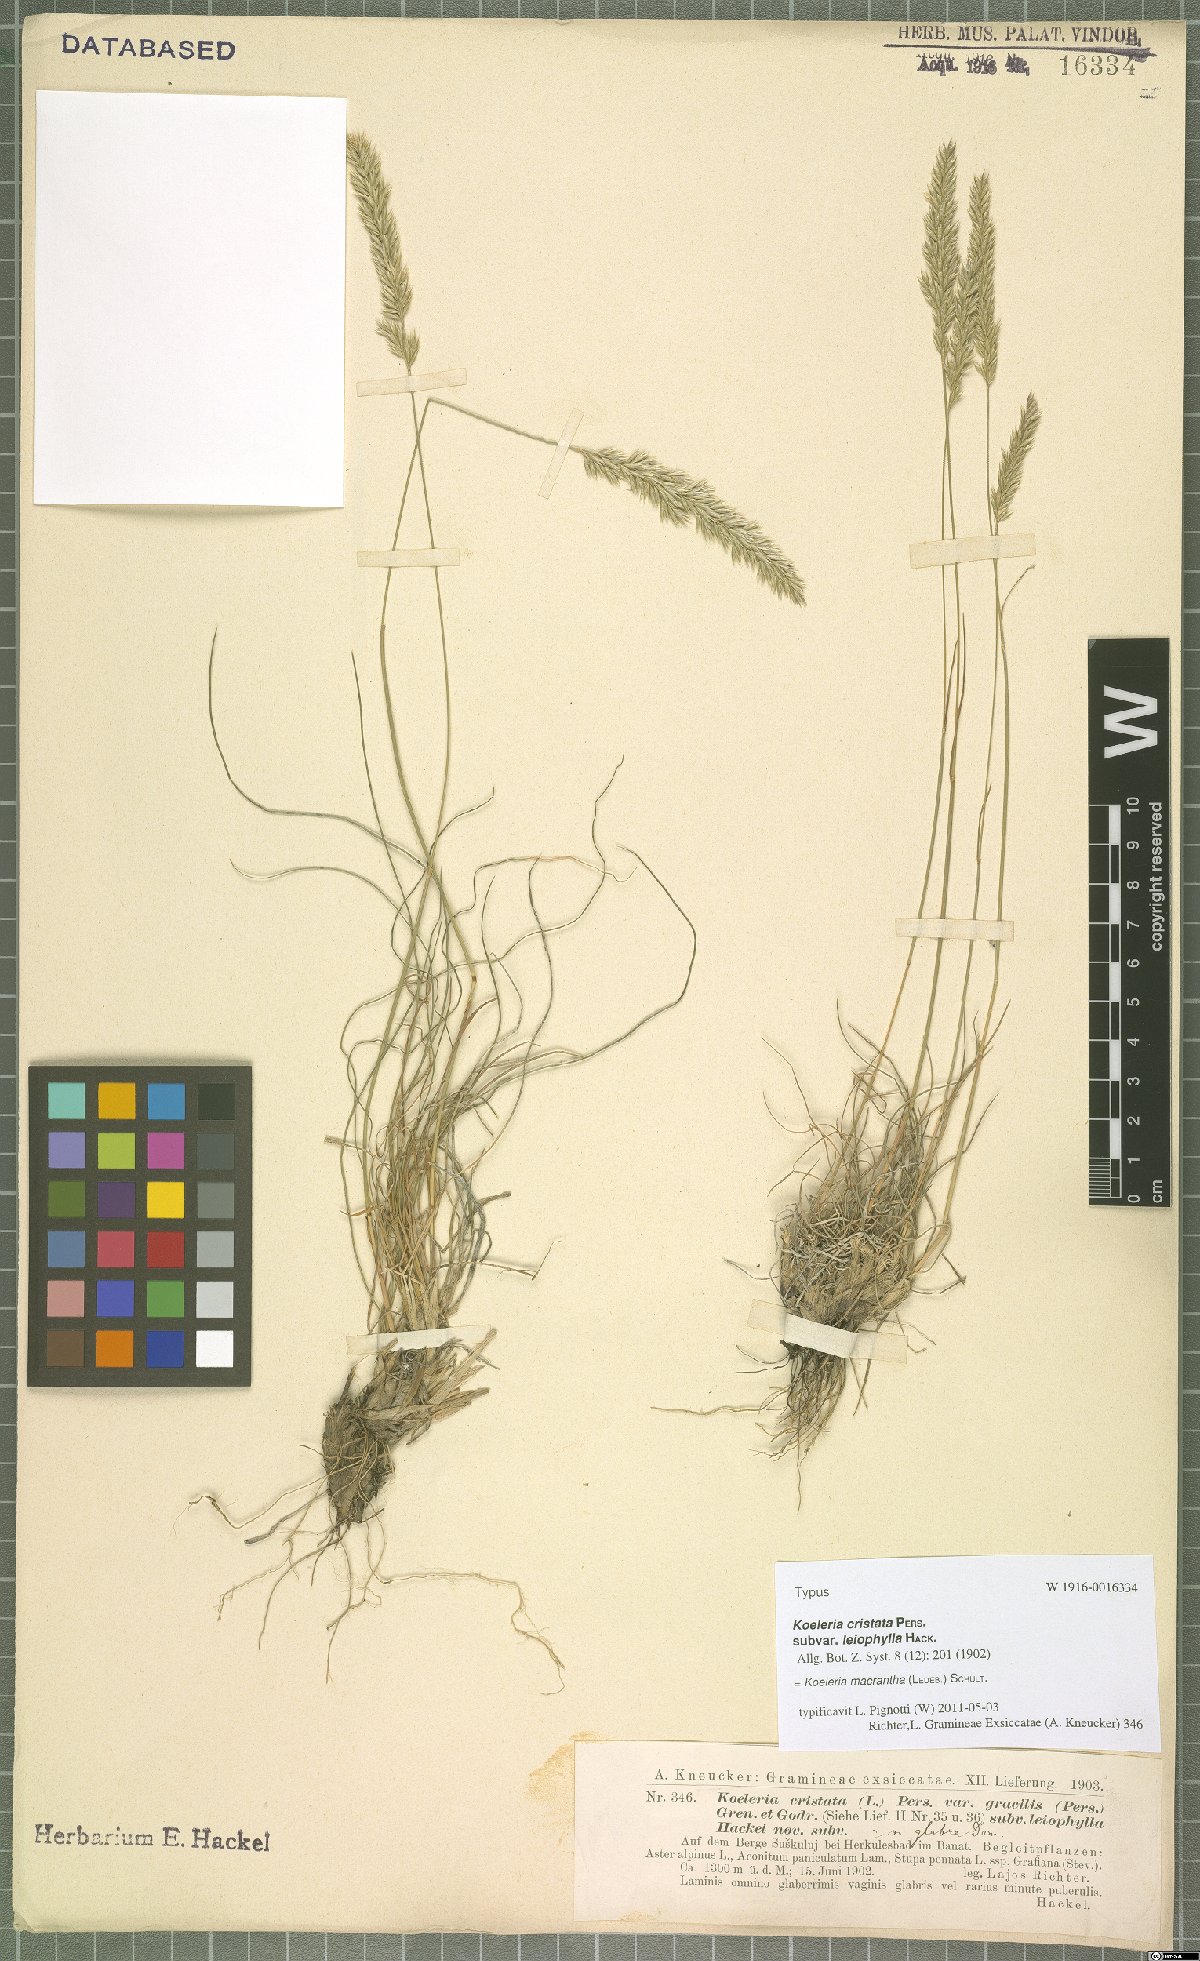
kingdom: Plantae
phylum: Tracheophyta
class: Liliopsida
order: Poales
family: Poaceae
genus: Koeleria
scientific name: Koeleria macrantha
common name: Crested hair-grass
